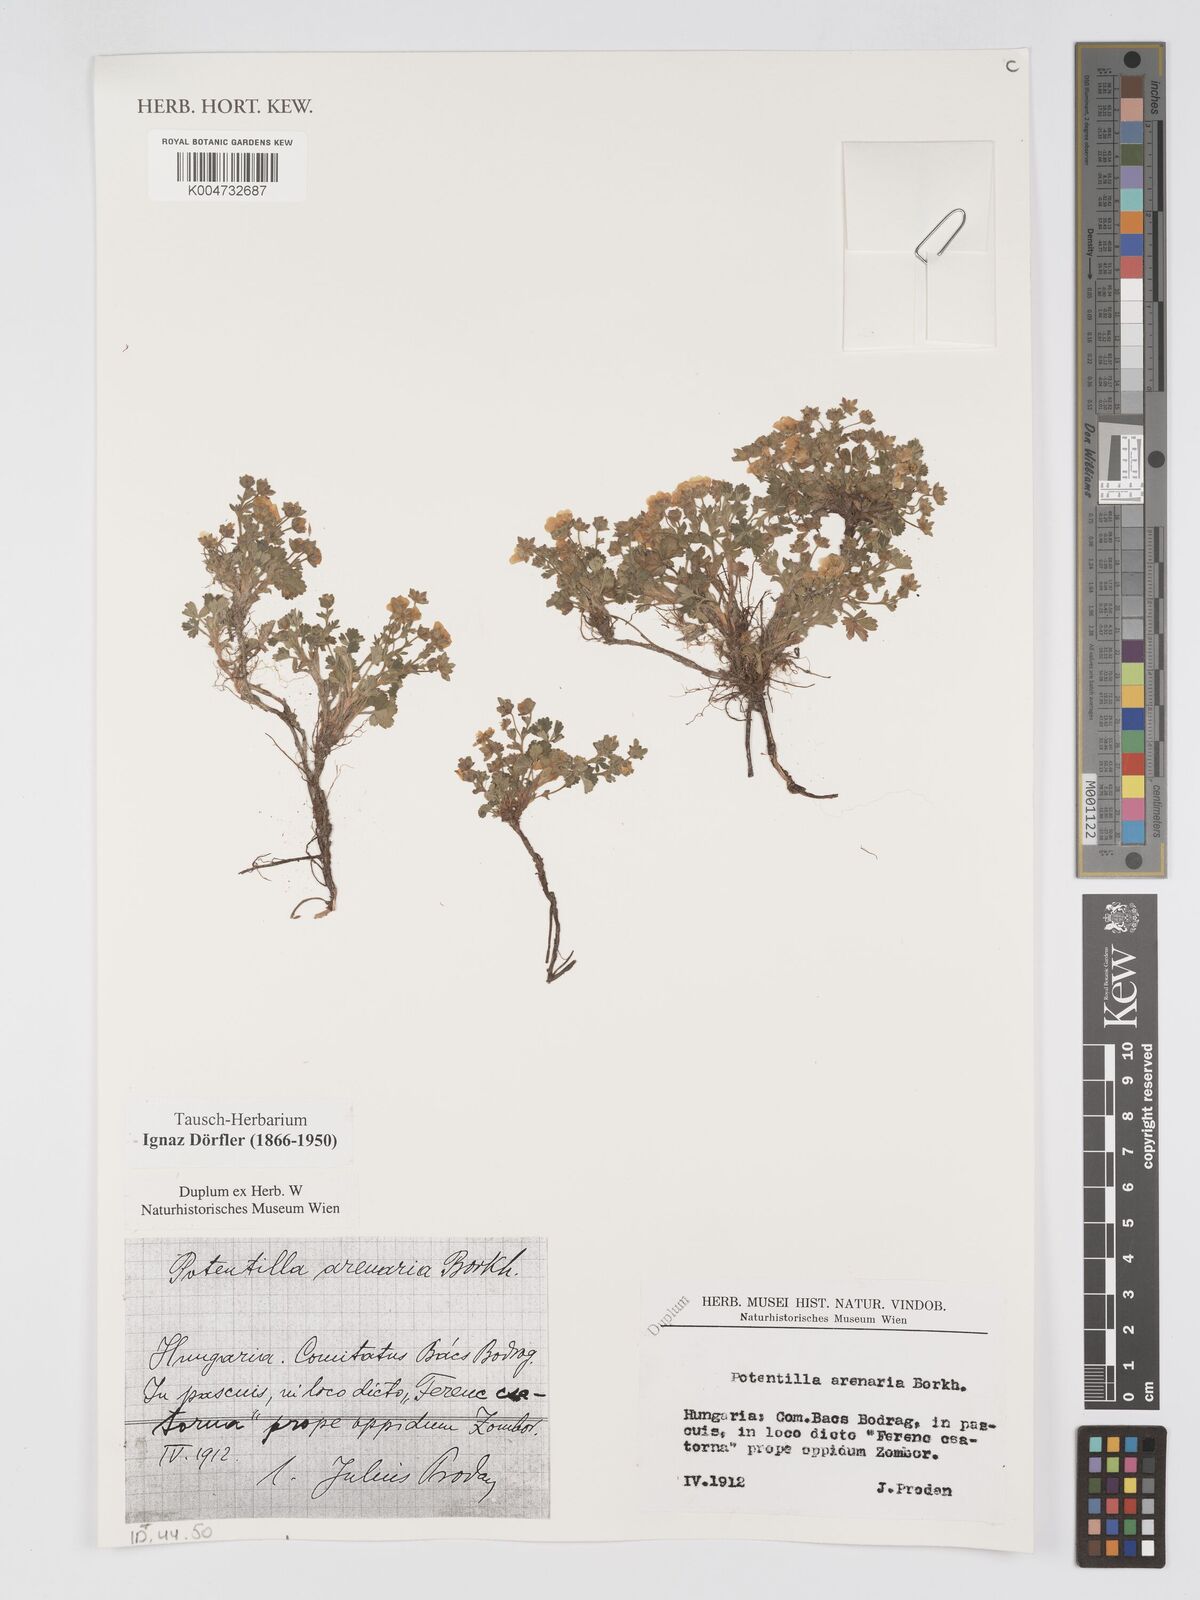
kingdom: Plantae
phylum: Tracheophyta
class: Magnoliopsida
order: Rosales
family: Rosaceae
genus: Potentilla
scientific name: Potentilla cinerea
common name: Ashy cinquefoil
